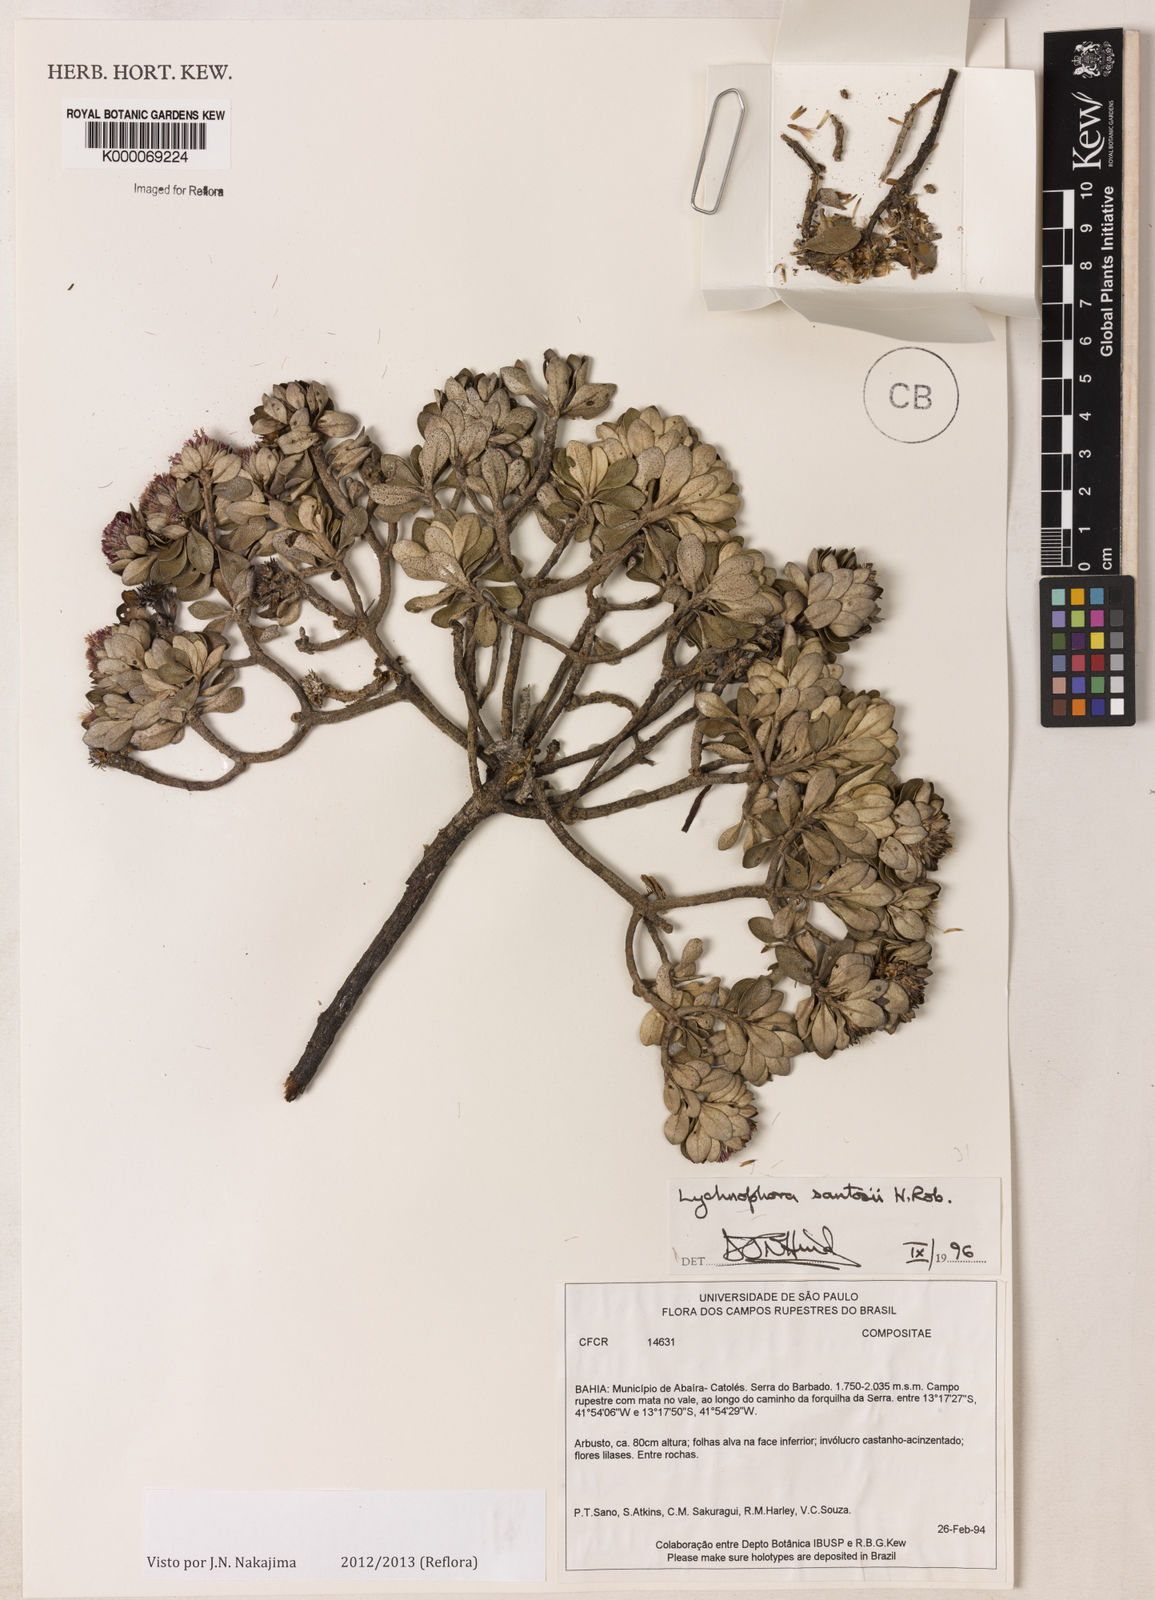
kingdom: Plantae
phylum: Tracheophyta
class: Magnoliopsida
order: Asterales
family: Asteraceae
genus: Lychnophorella
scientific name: Lychnophorella santosii
